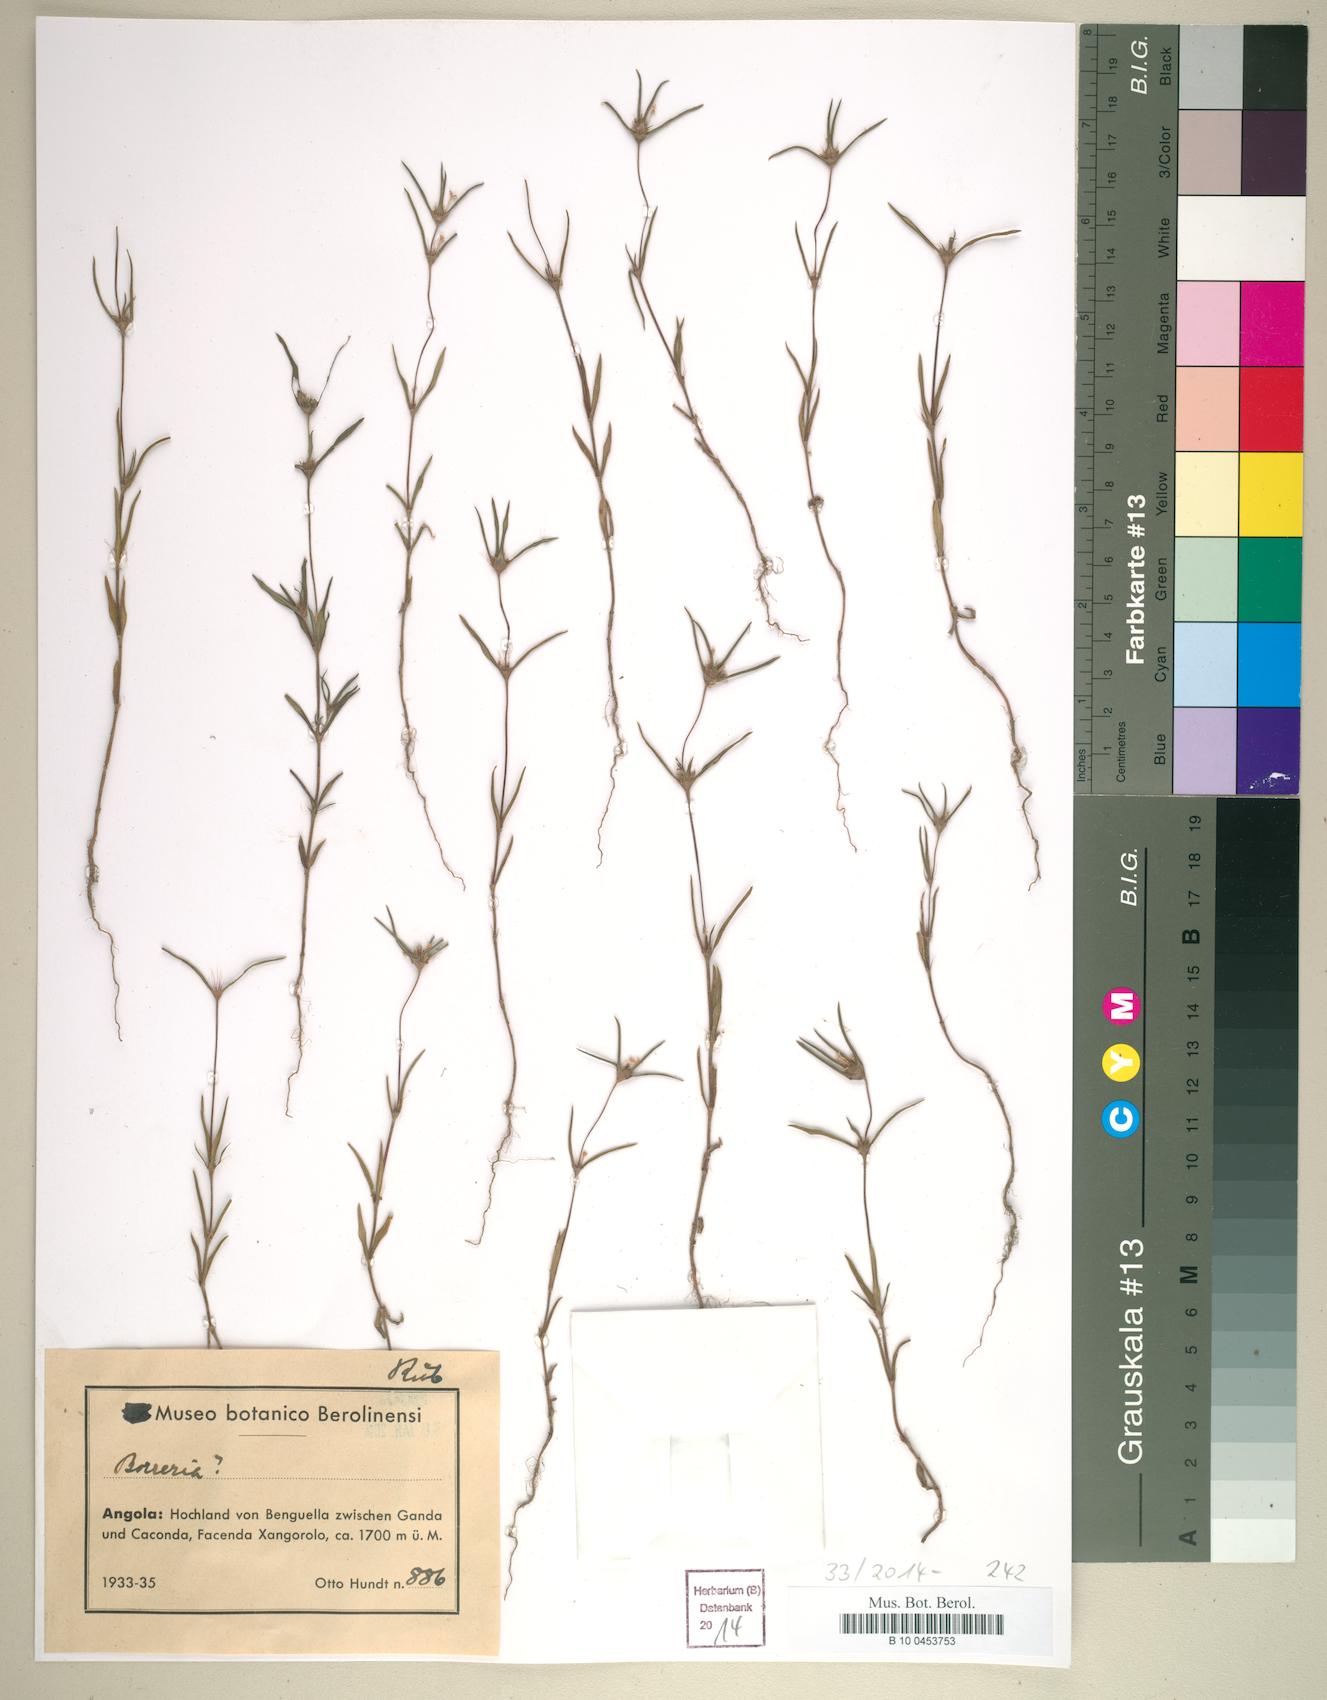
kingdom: Plantae
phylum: Tracheophyta
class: Magnoliopsida
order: Gentianales
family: Rubiaceae
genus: Spermacoce
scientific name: Spermacoce
